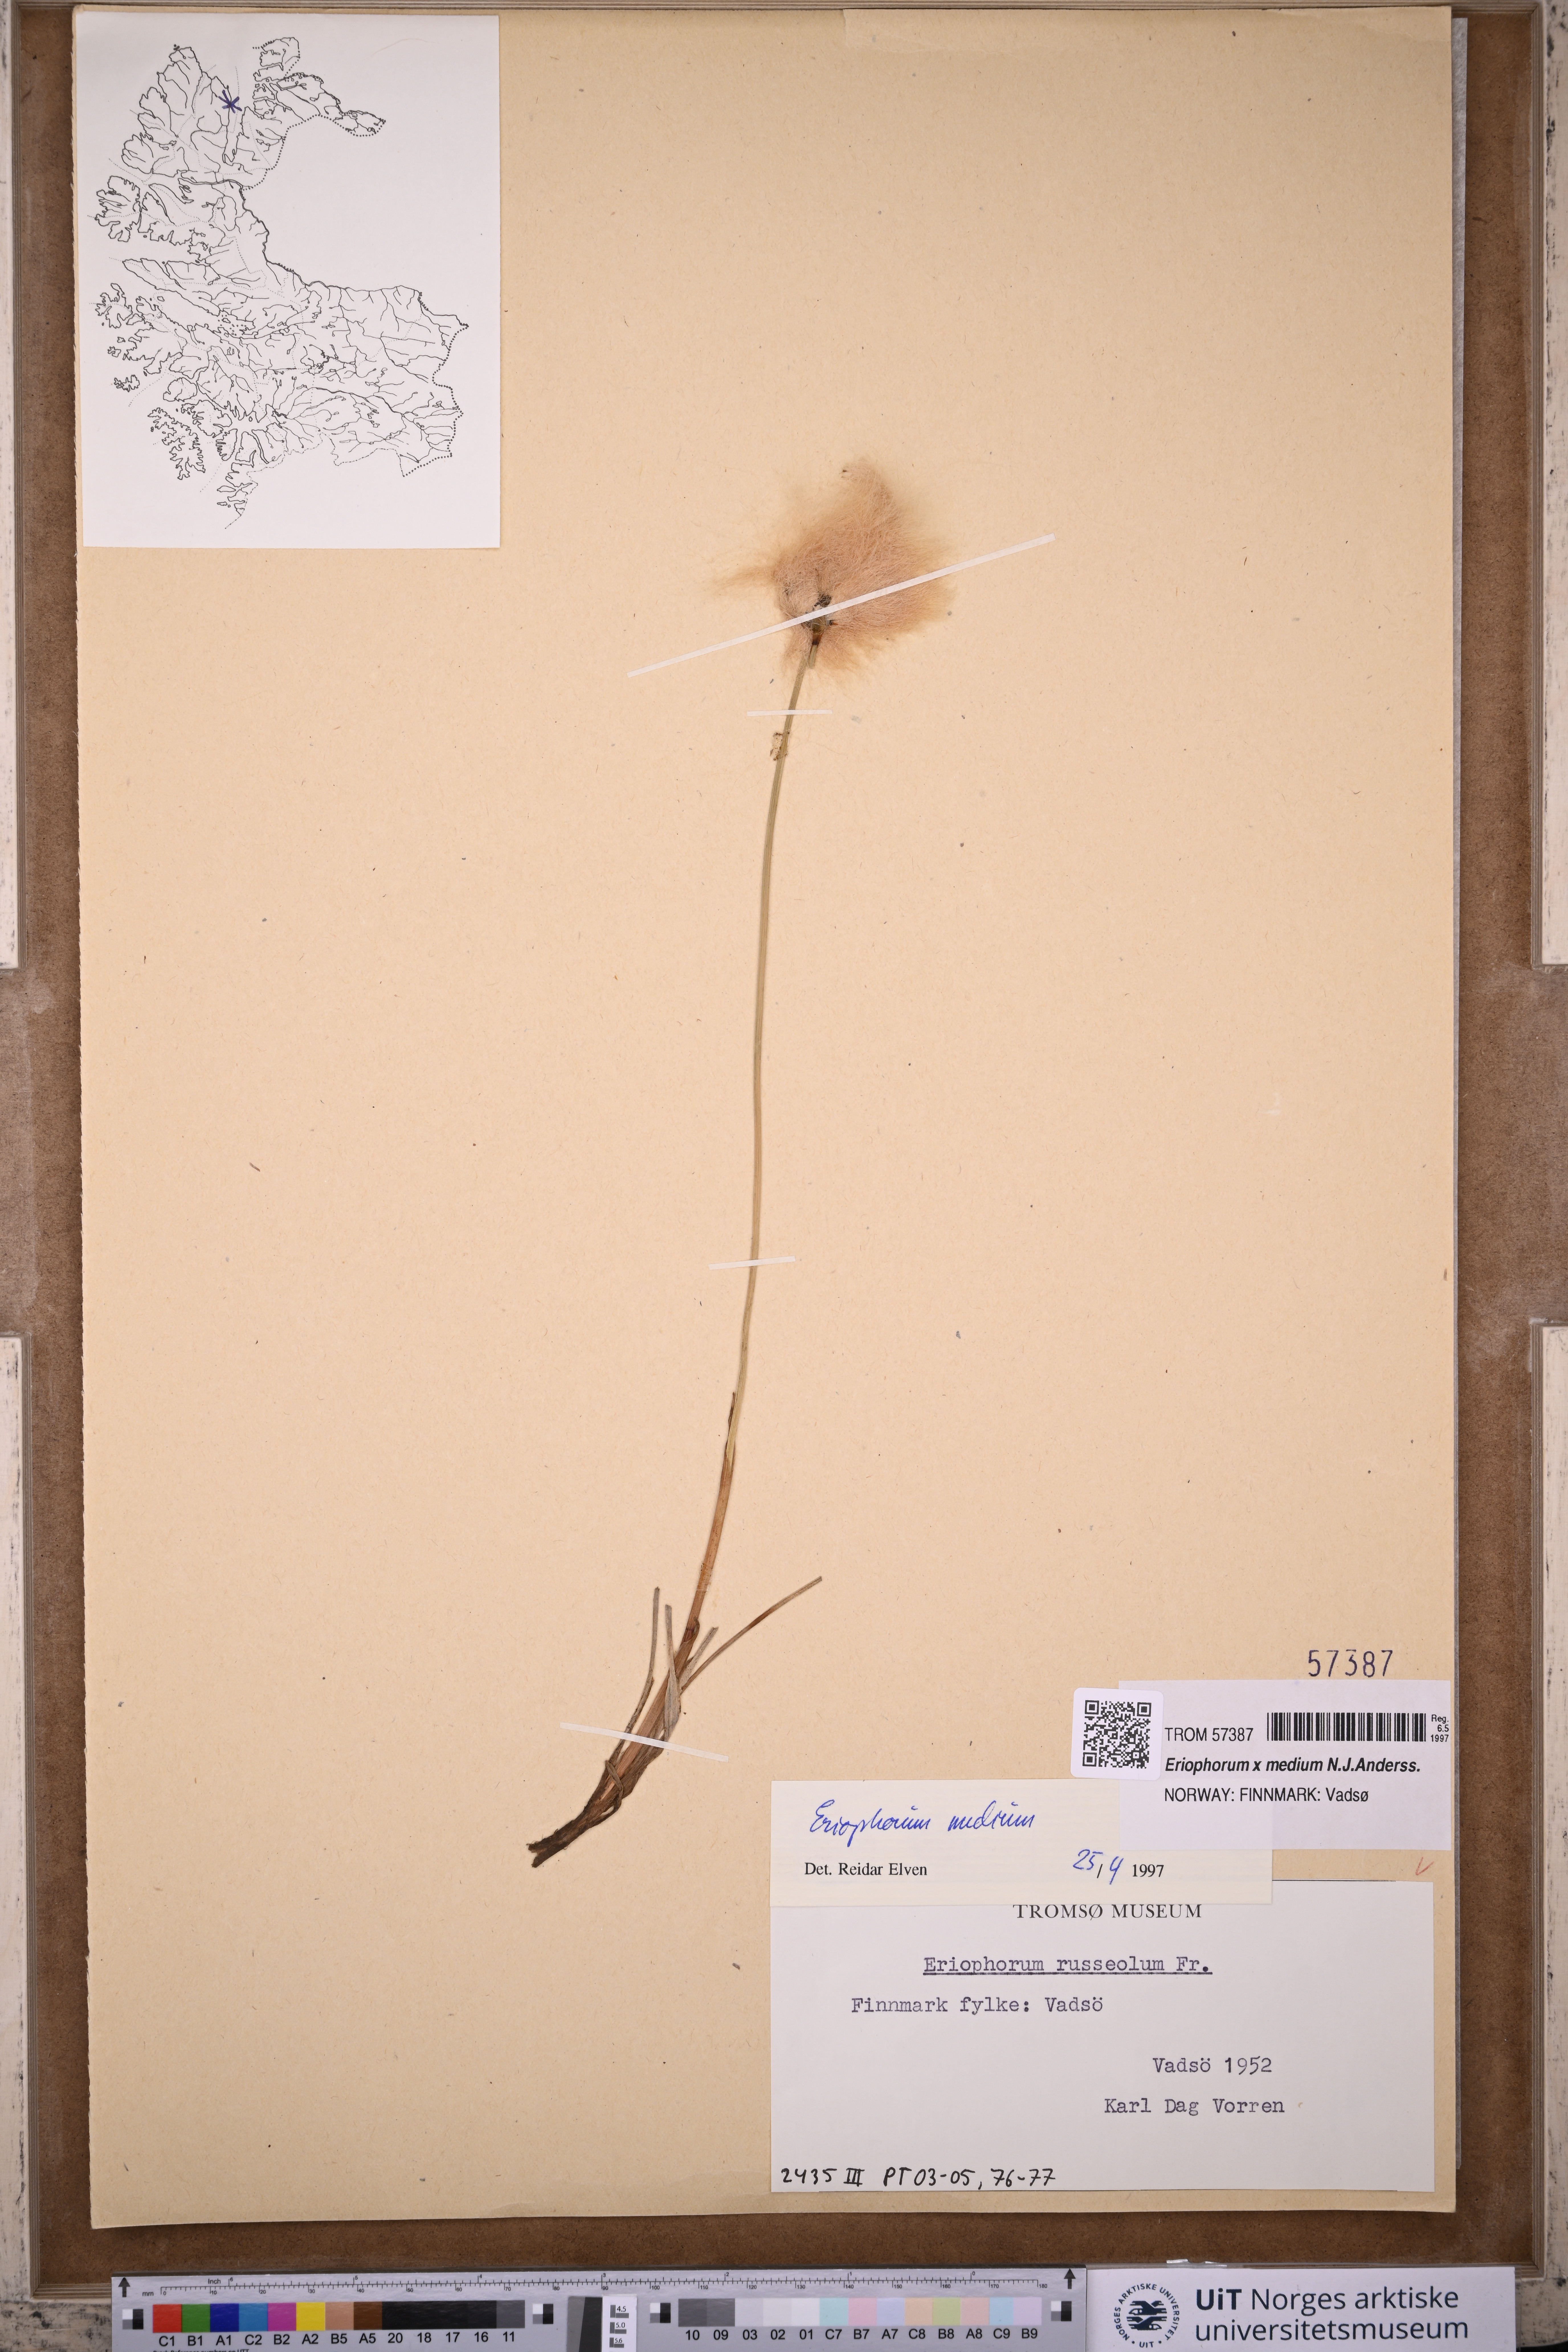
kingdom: Plantae
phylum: Tracheophyta
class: Liliopsida
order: Poales
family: Cyperaceae
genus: Eriophorum
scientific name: Eriophorum medium
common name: Intermediate cottongrass
